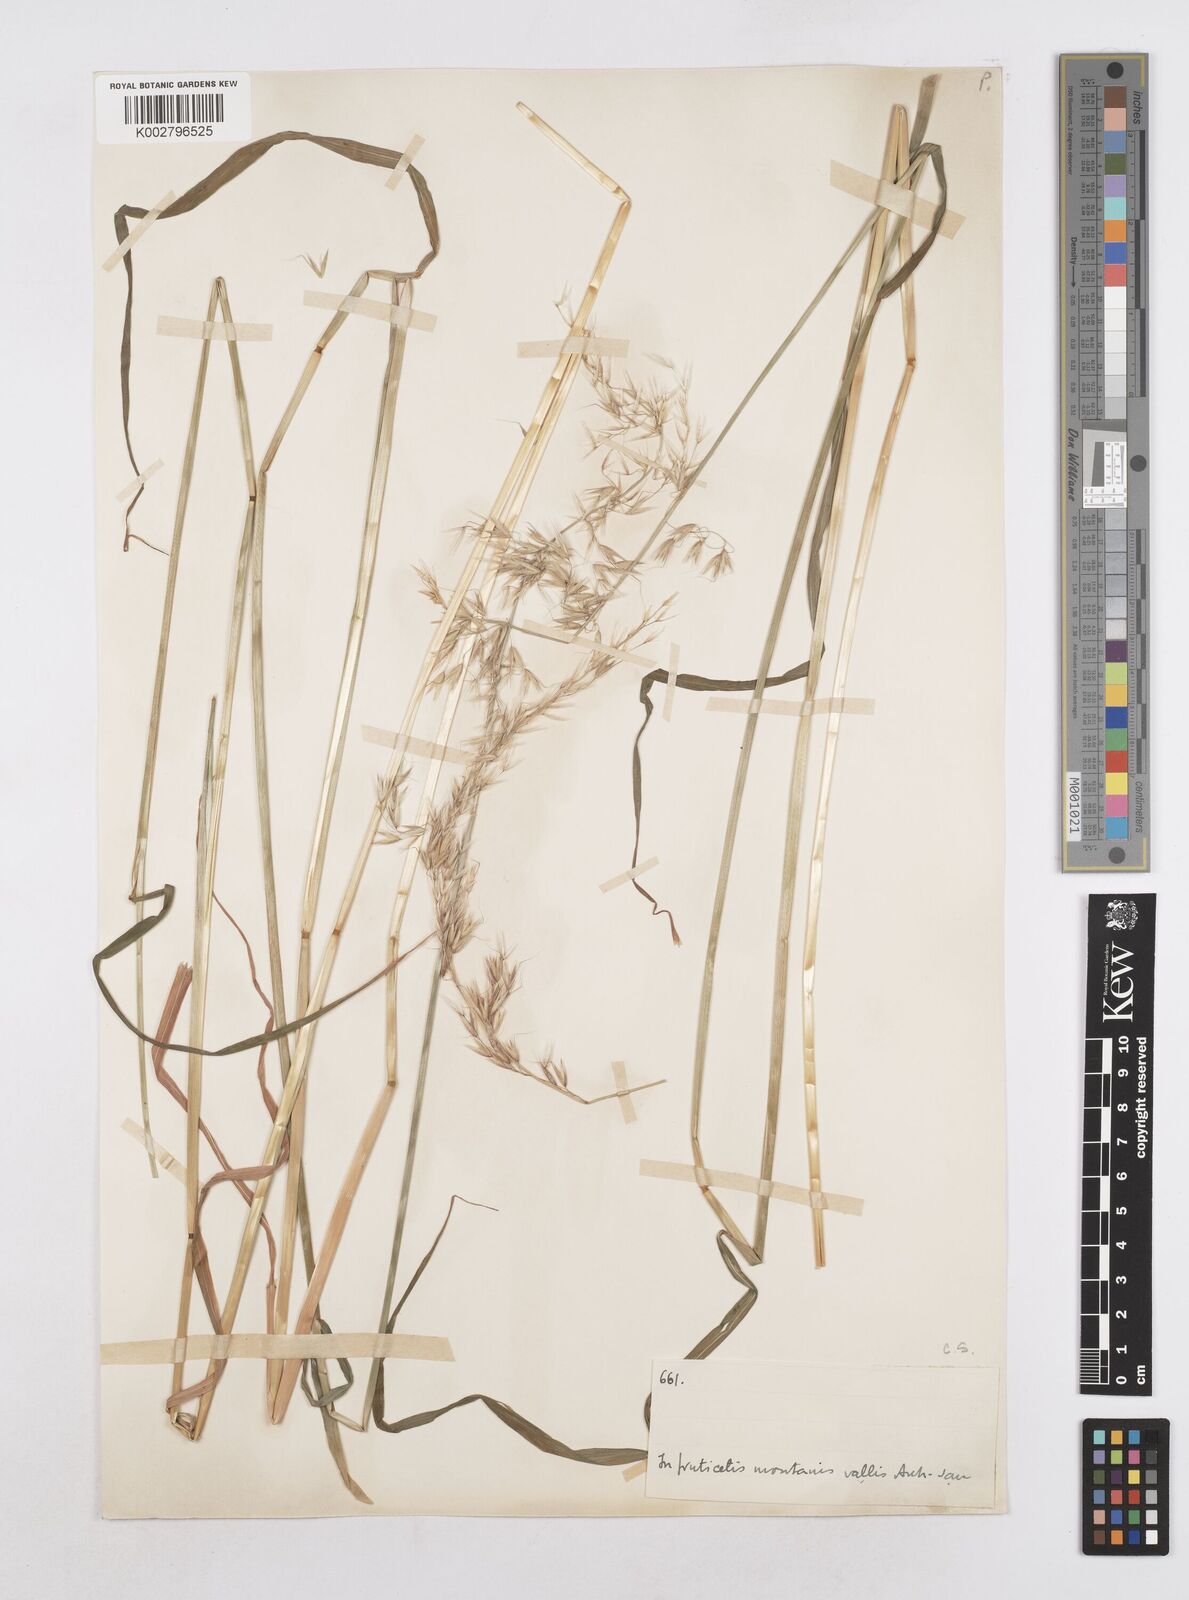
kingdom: Plantae
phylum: Tracheophyta
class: Liliopsida
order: Poales
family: Poaceae
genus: Arrhenatherum
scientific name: Arrhenatherum elatius
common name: Tall oatgrass
